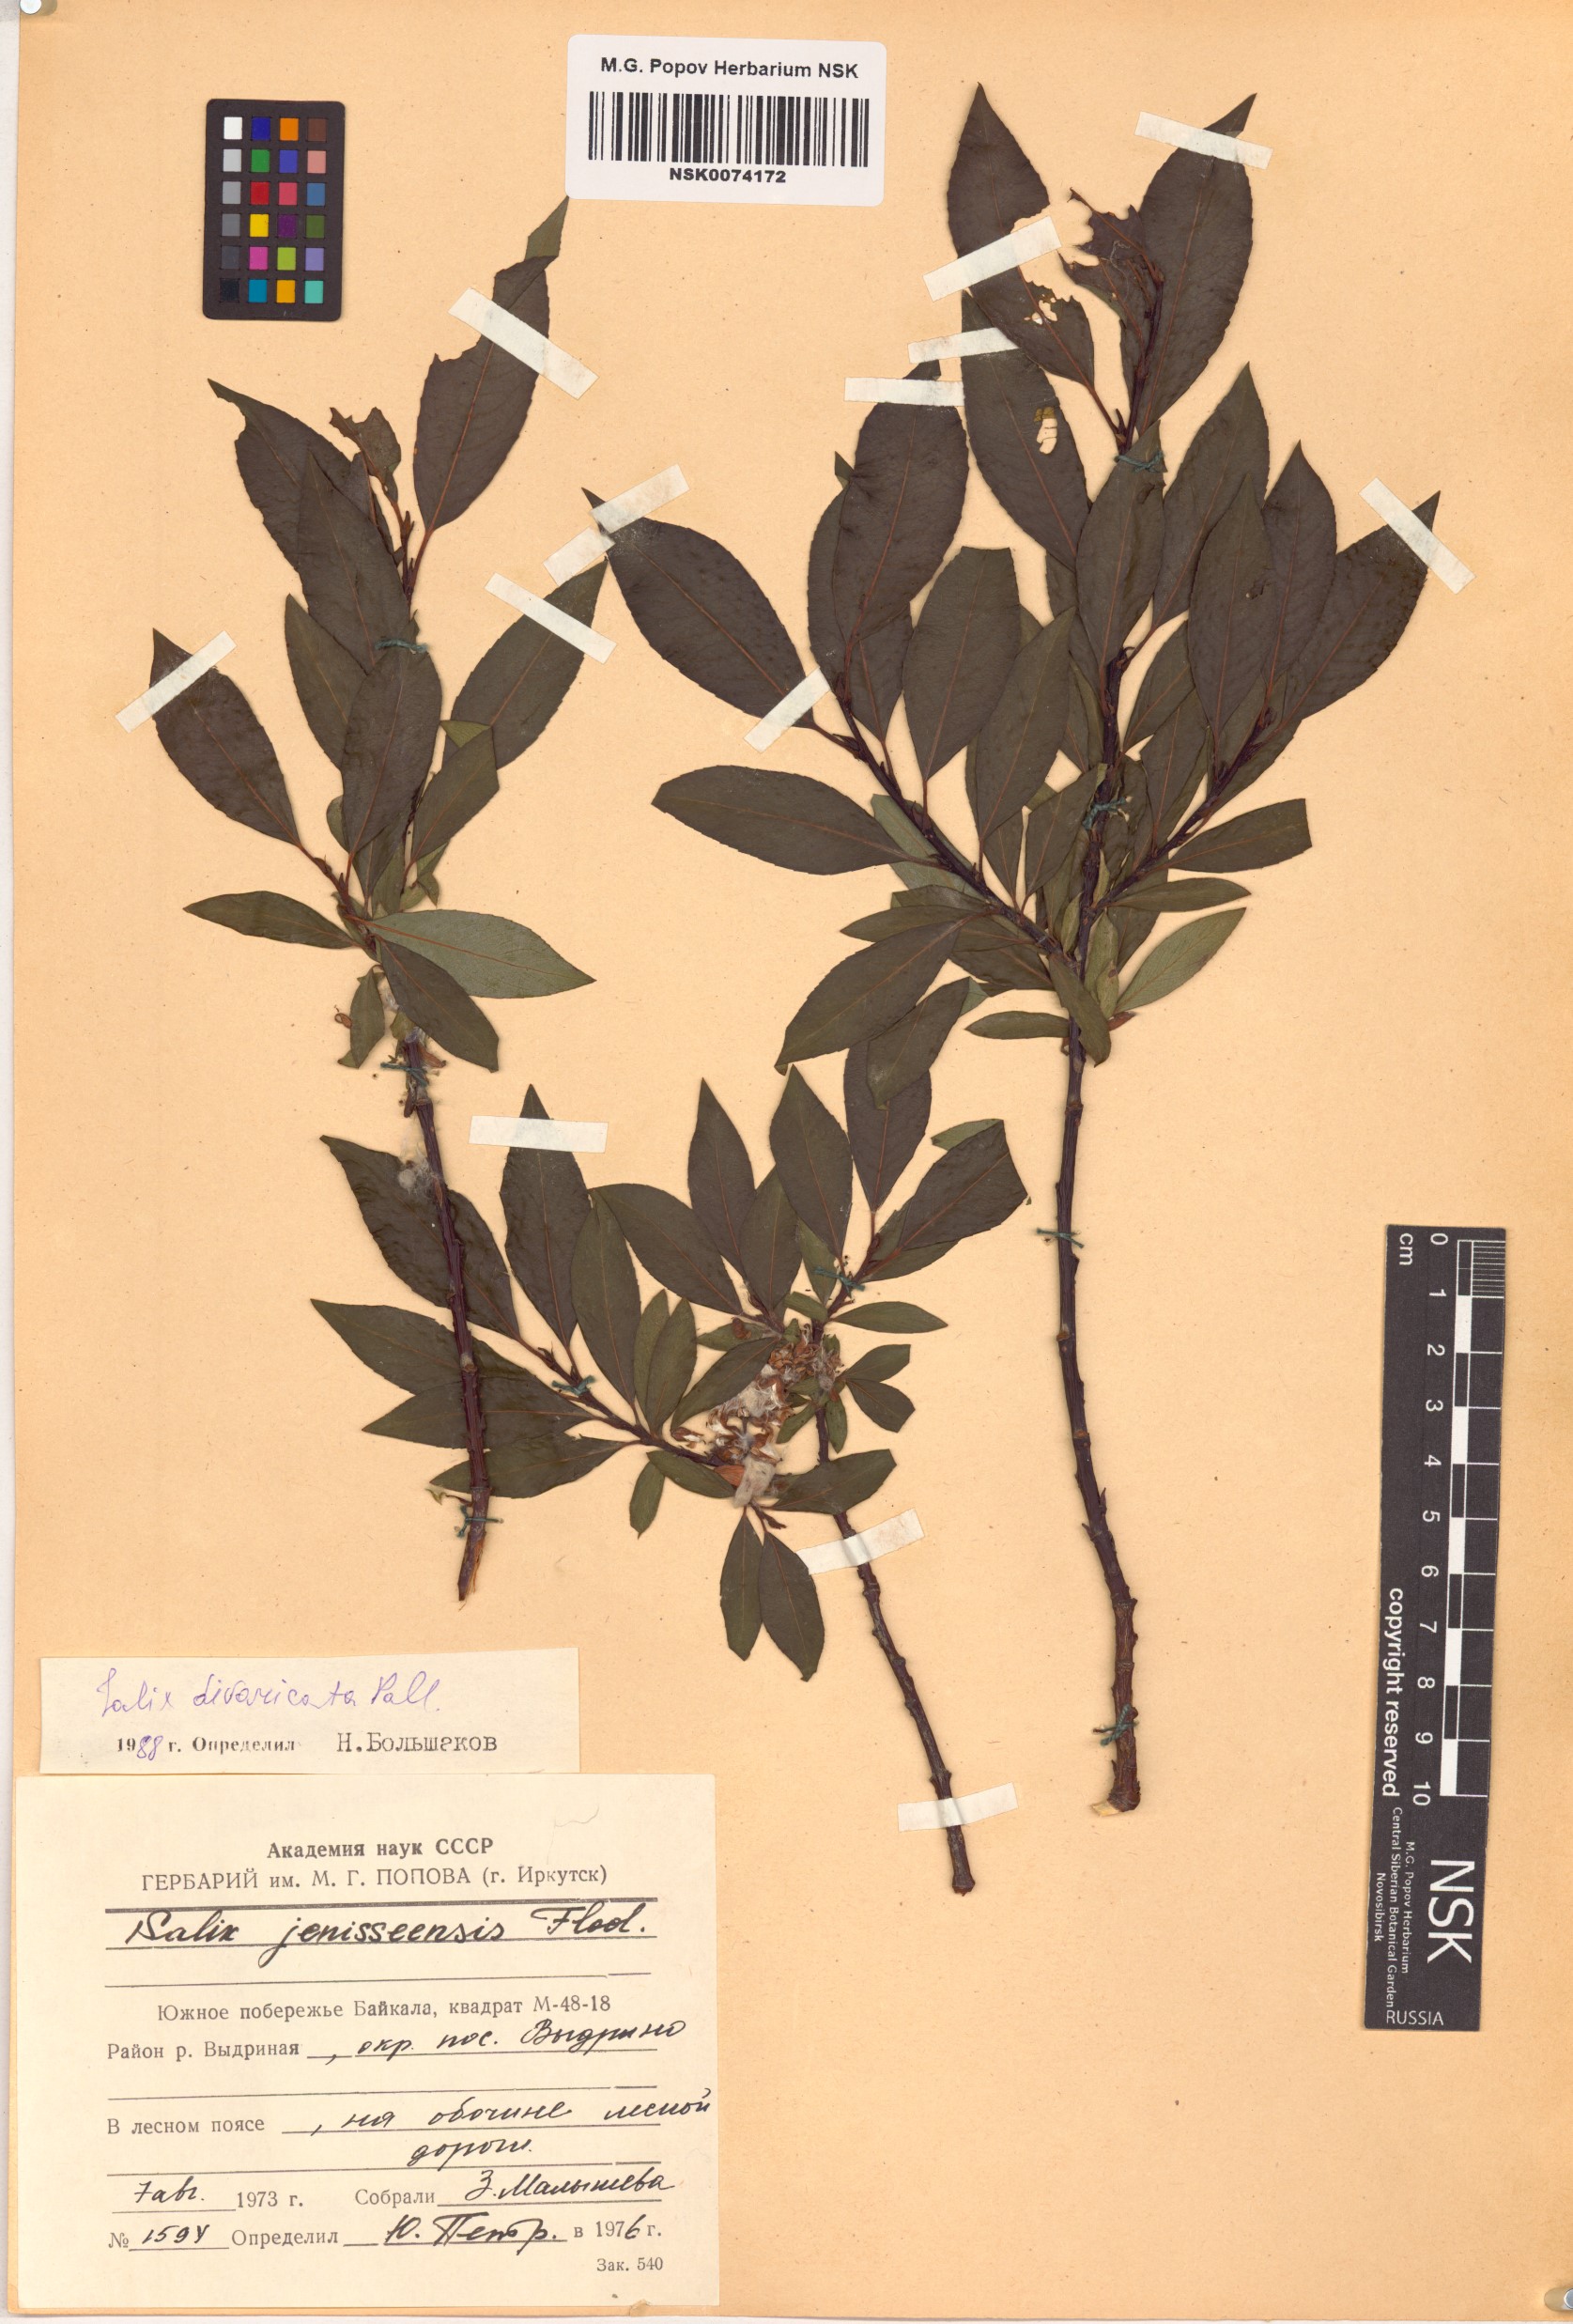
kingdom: Plantae
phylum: Tracheophyta
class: Magnoliopsida
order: Malpighiales
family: Salicaceae
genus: Salix
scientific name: Salix divaricata
